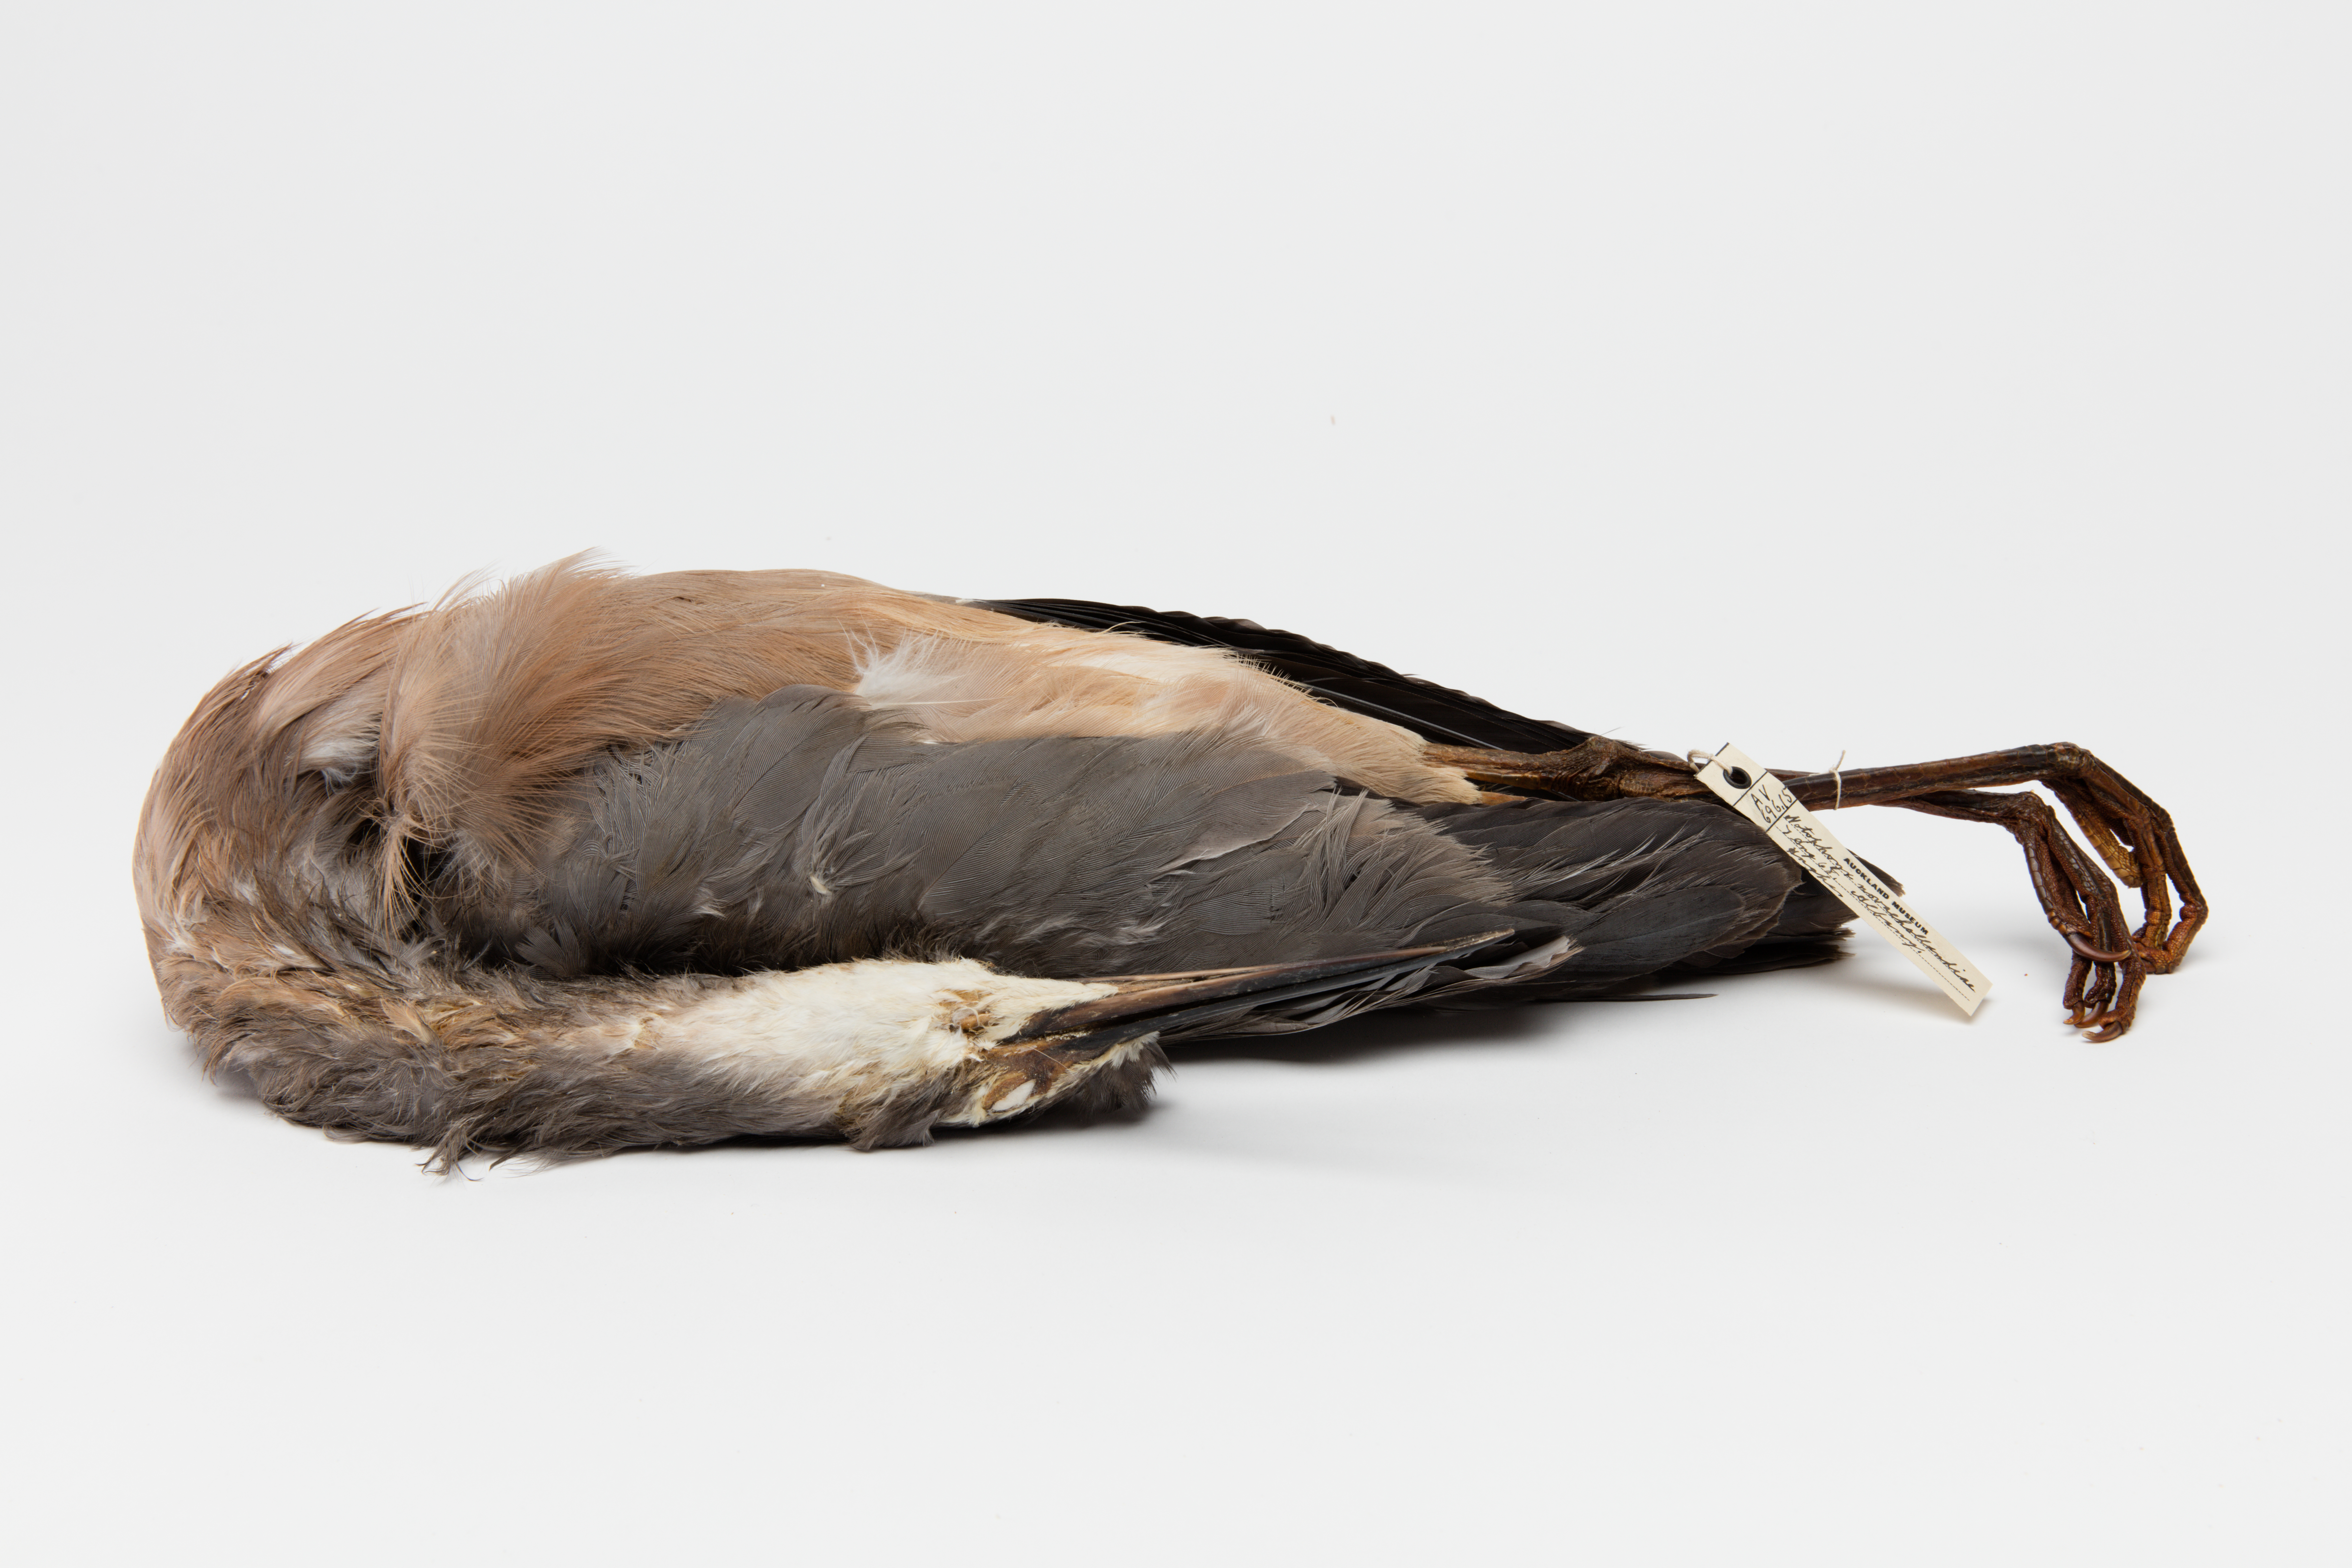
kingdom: Animalia
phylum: Chordata
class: Aves
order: Pelecaniformes
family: Ardeidae
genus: Egretta
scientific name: Egretta novaehollandiae
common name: White-faced heron
